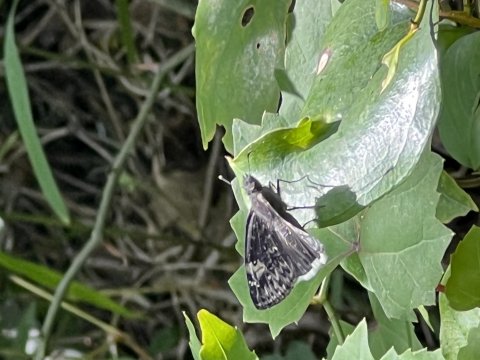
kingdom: Animalia
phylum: Arthropoda
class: Insecta
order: Lepidoptera
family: Hesperiidae
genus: Erynnis
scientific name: Erynnis funeralis
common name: Funereal Duskywing
